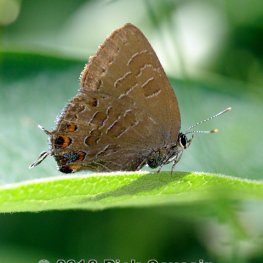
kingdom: Animalia
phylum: Arthropoda
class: Insecta
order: Lepidoptera
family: Lycaenidae
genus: Satyrium
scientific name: Satyrium liparops
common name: Striped Hairstreak
